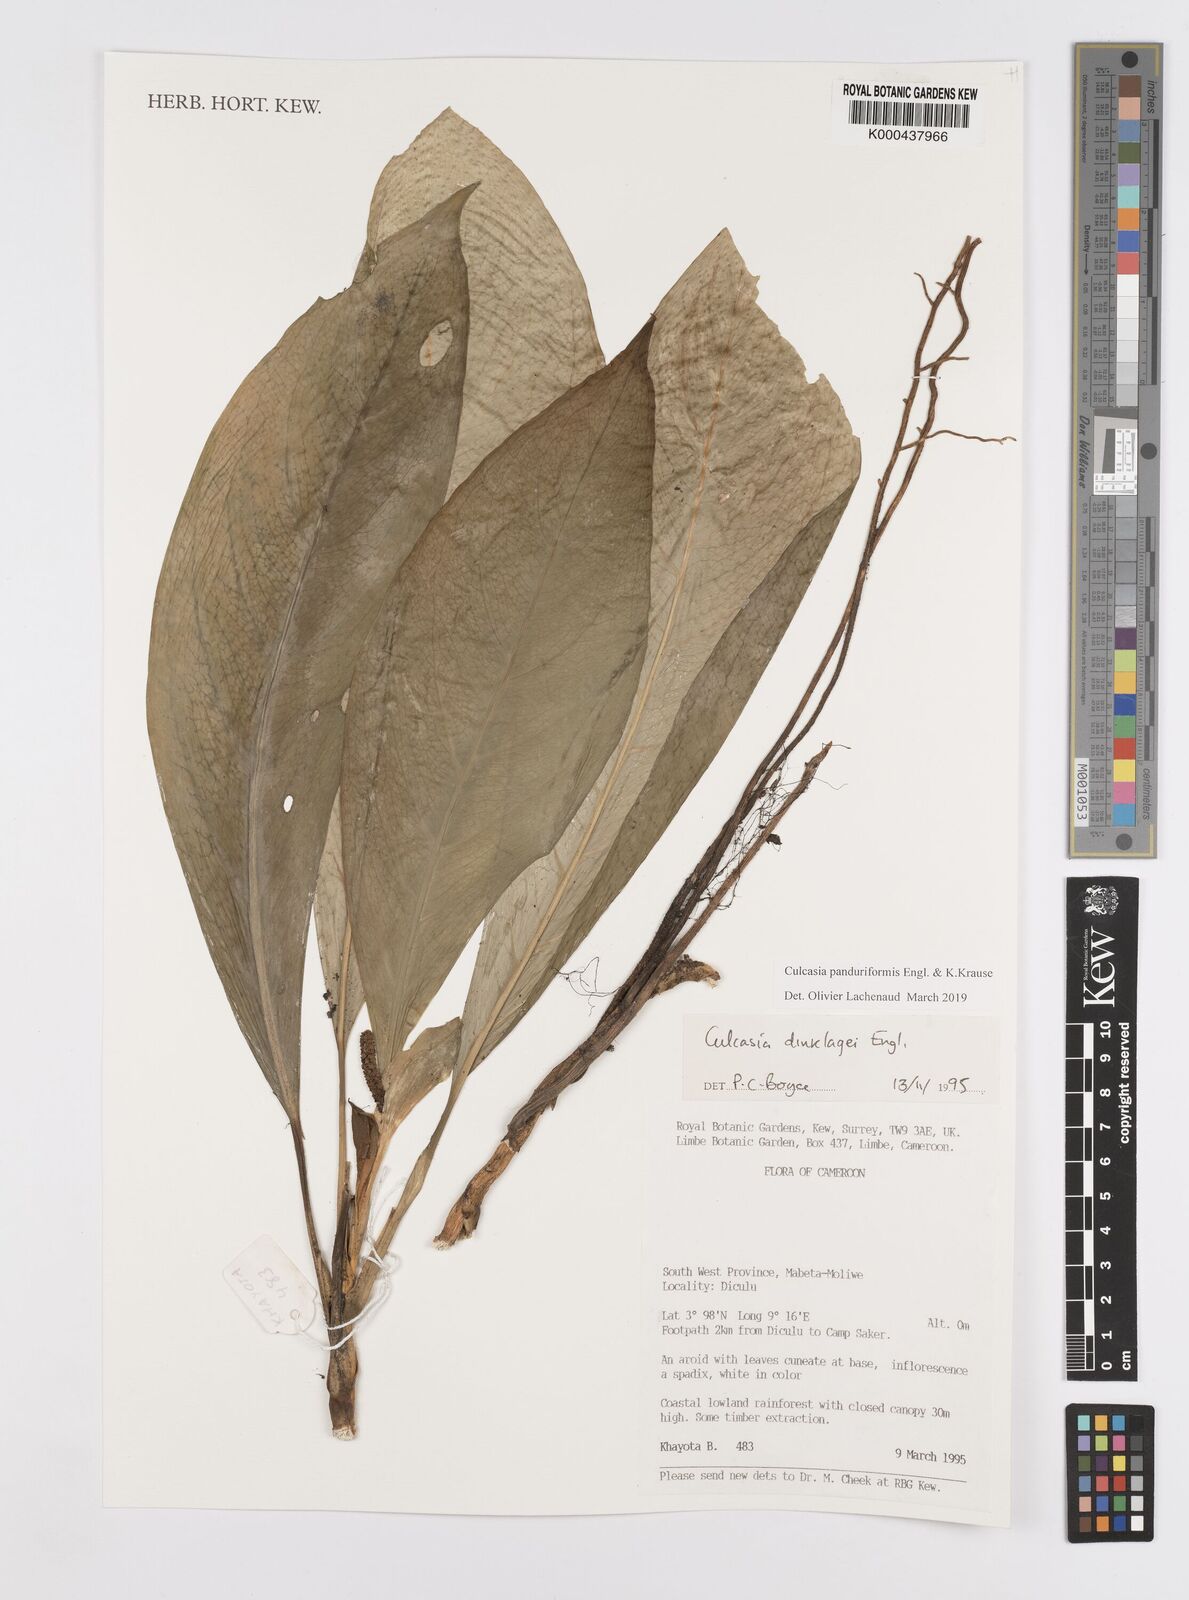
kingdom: Plantae
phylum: Tracheophyta
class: Liliopsida
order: Alismatales
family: Araceae
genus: Culcasia
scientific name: Culcasia panduriformis
